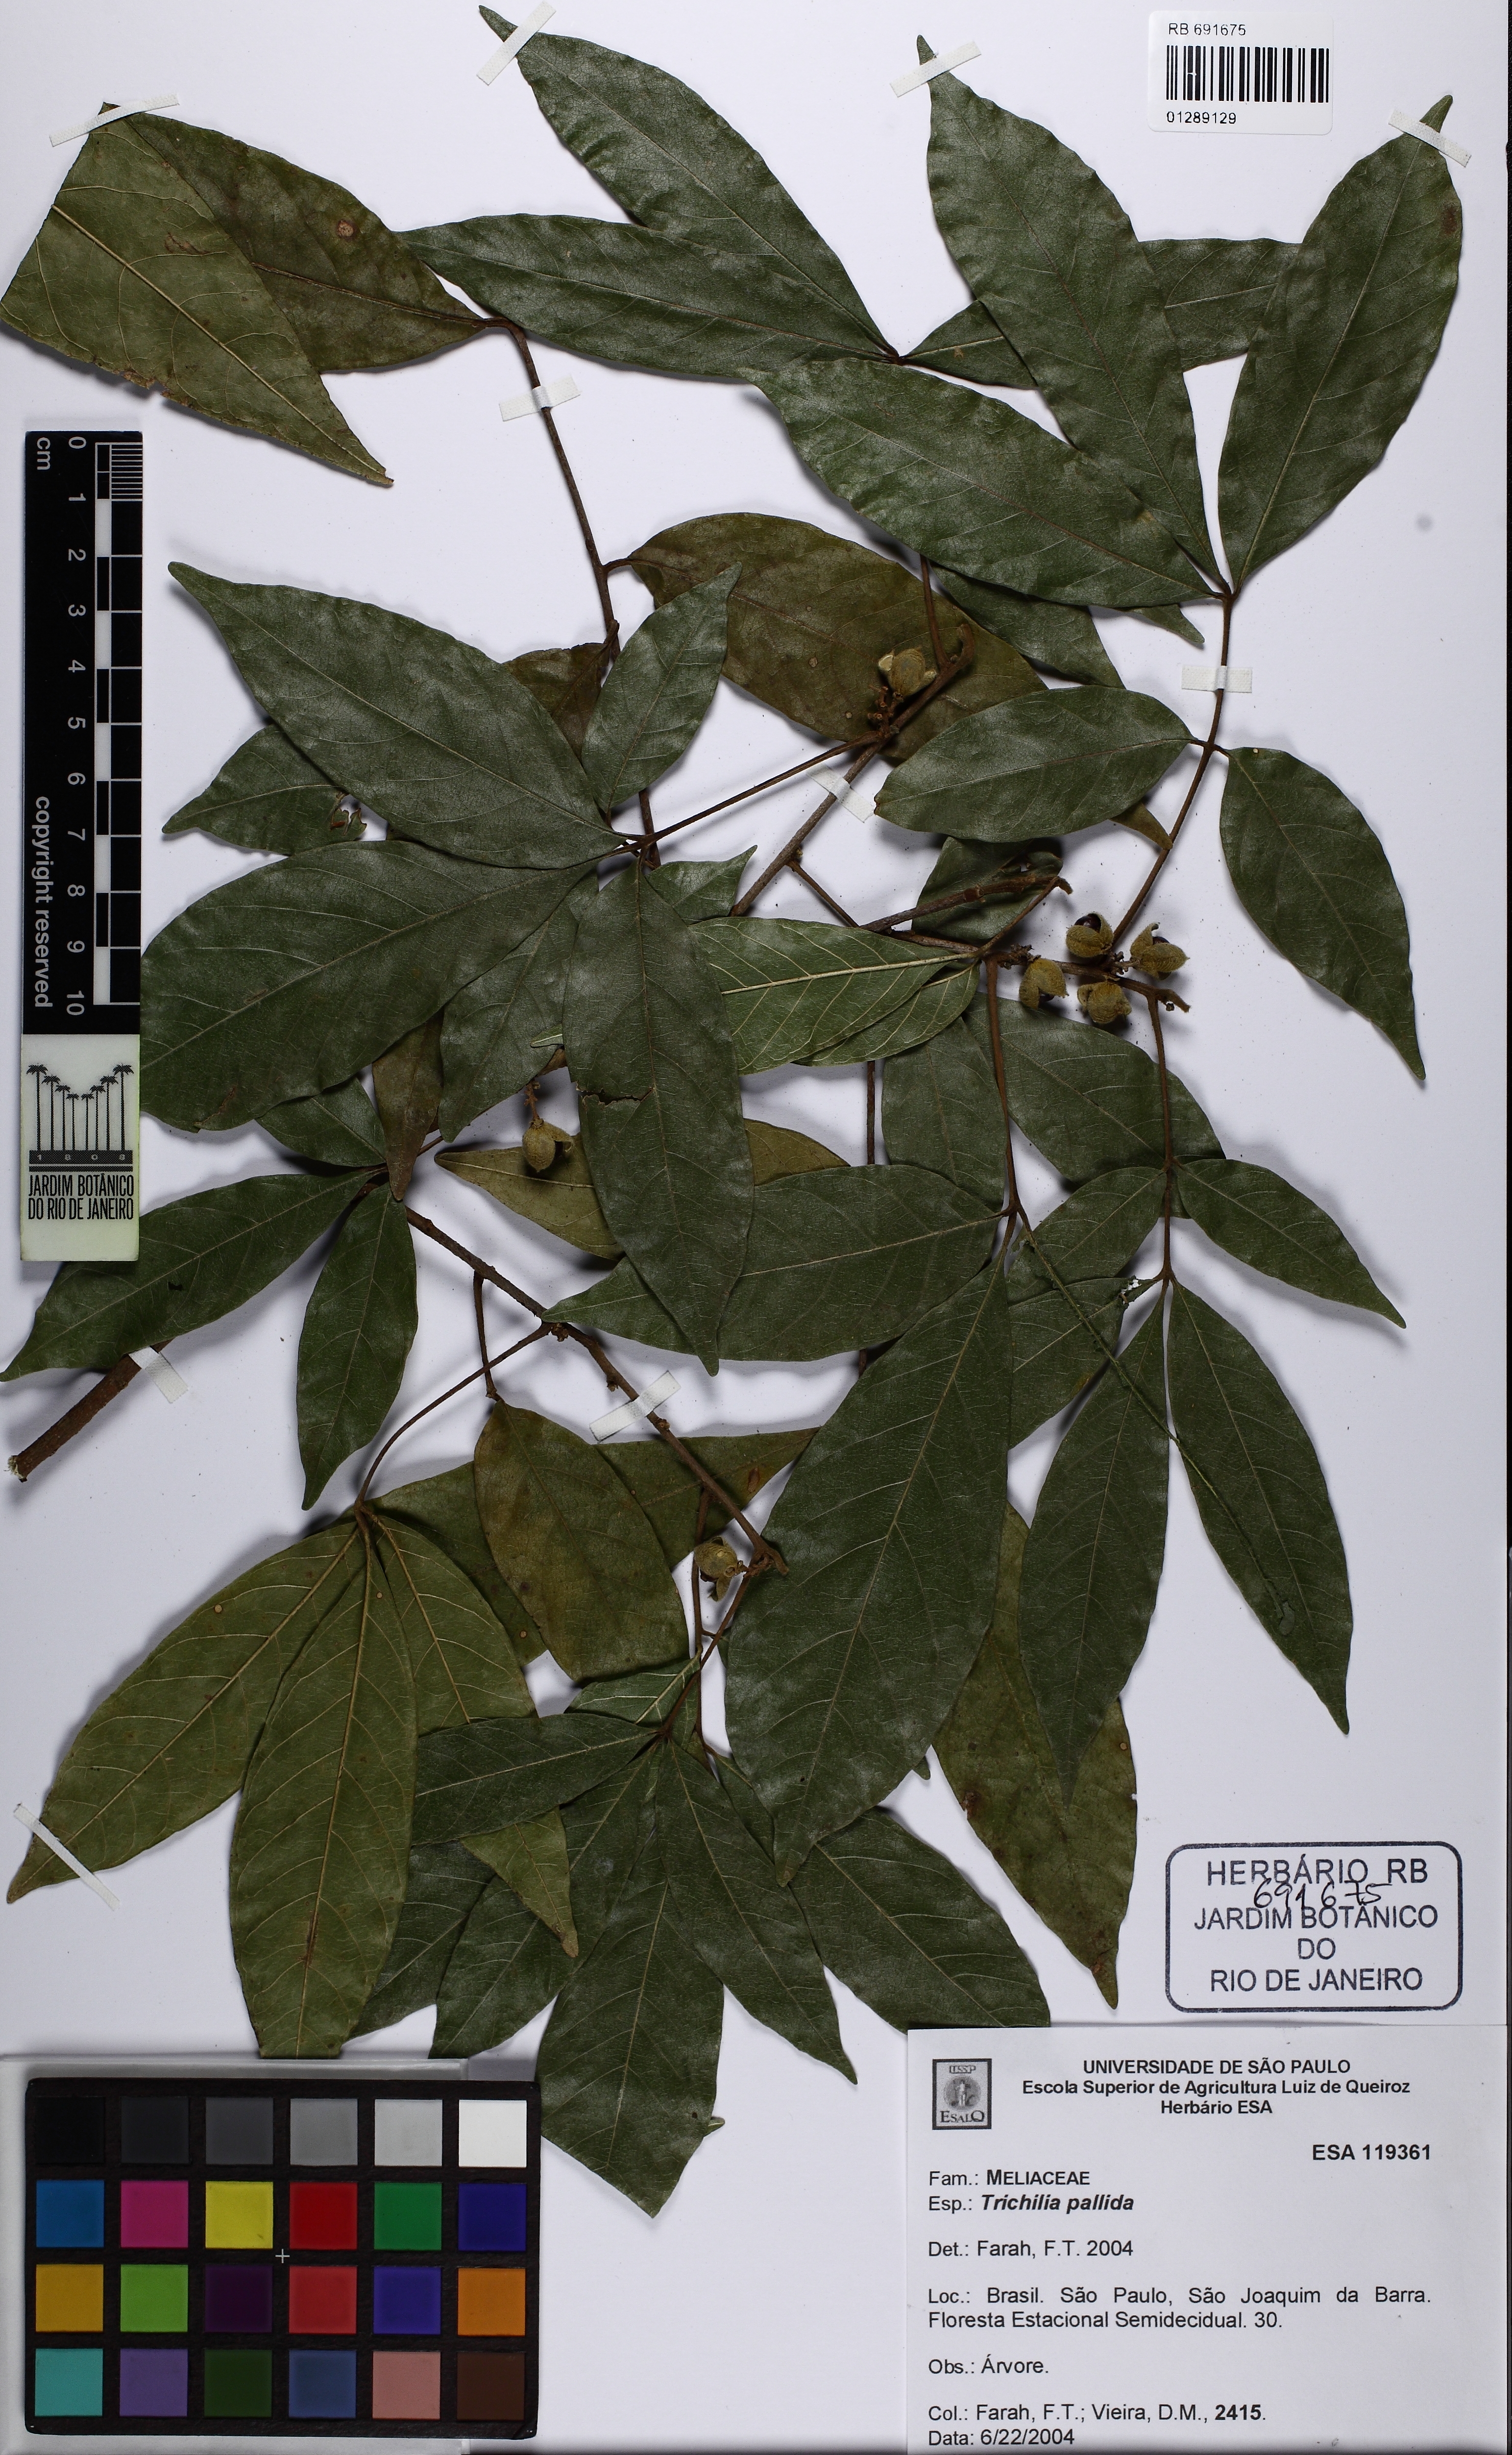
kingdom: Plantae
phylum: Tracheophyta
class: Magnoliopsida
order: Sapindales
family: Meliaceae
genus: Trichilia
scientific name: Trichilia pallida
